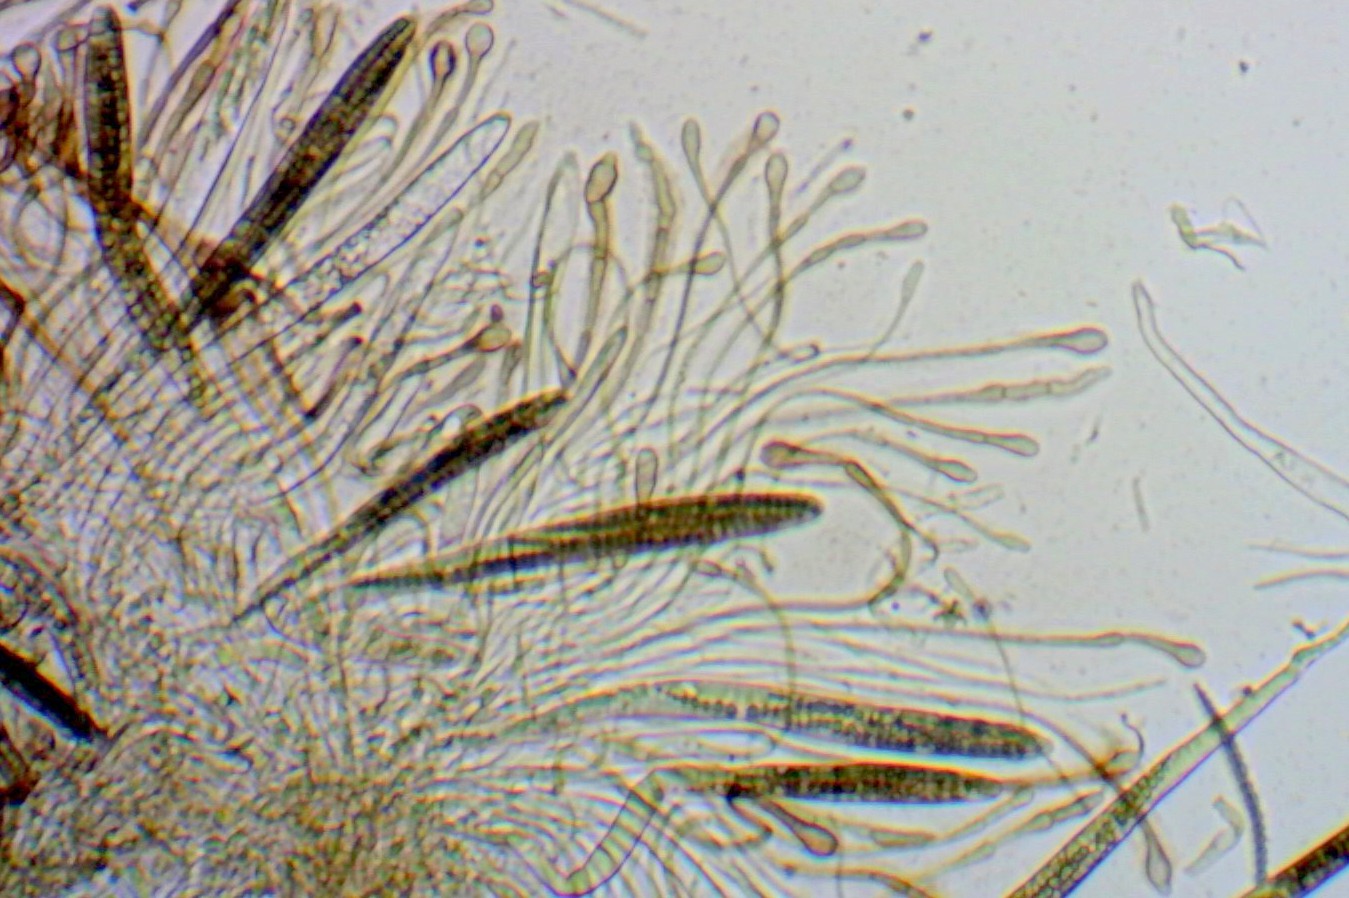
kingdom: Fungi
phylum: Ascomycota
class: Geoglossomycetes
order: Geoglossales
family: Geoglossaceae
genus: Glutinoglossum
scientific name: Glutinoglossum glutinosum
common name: slimet jordtunge
